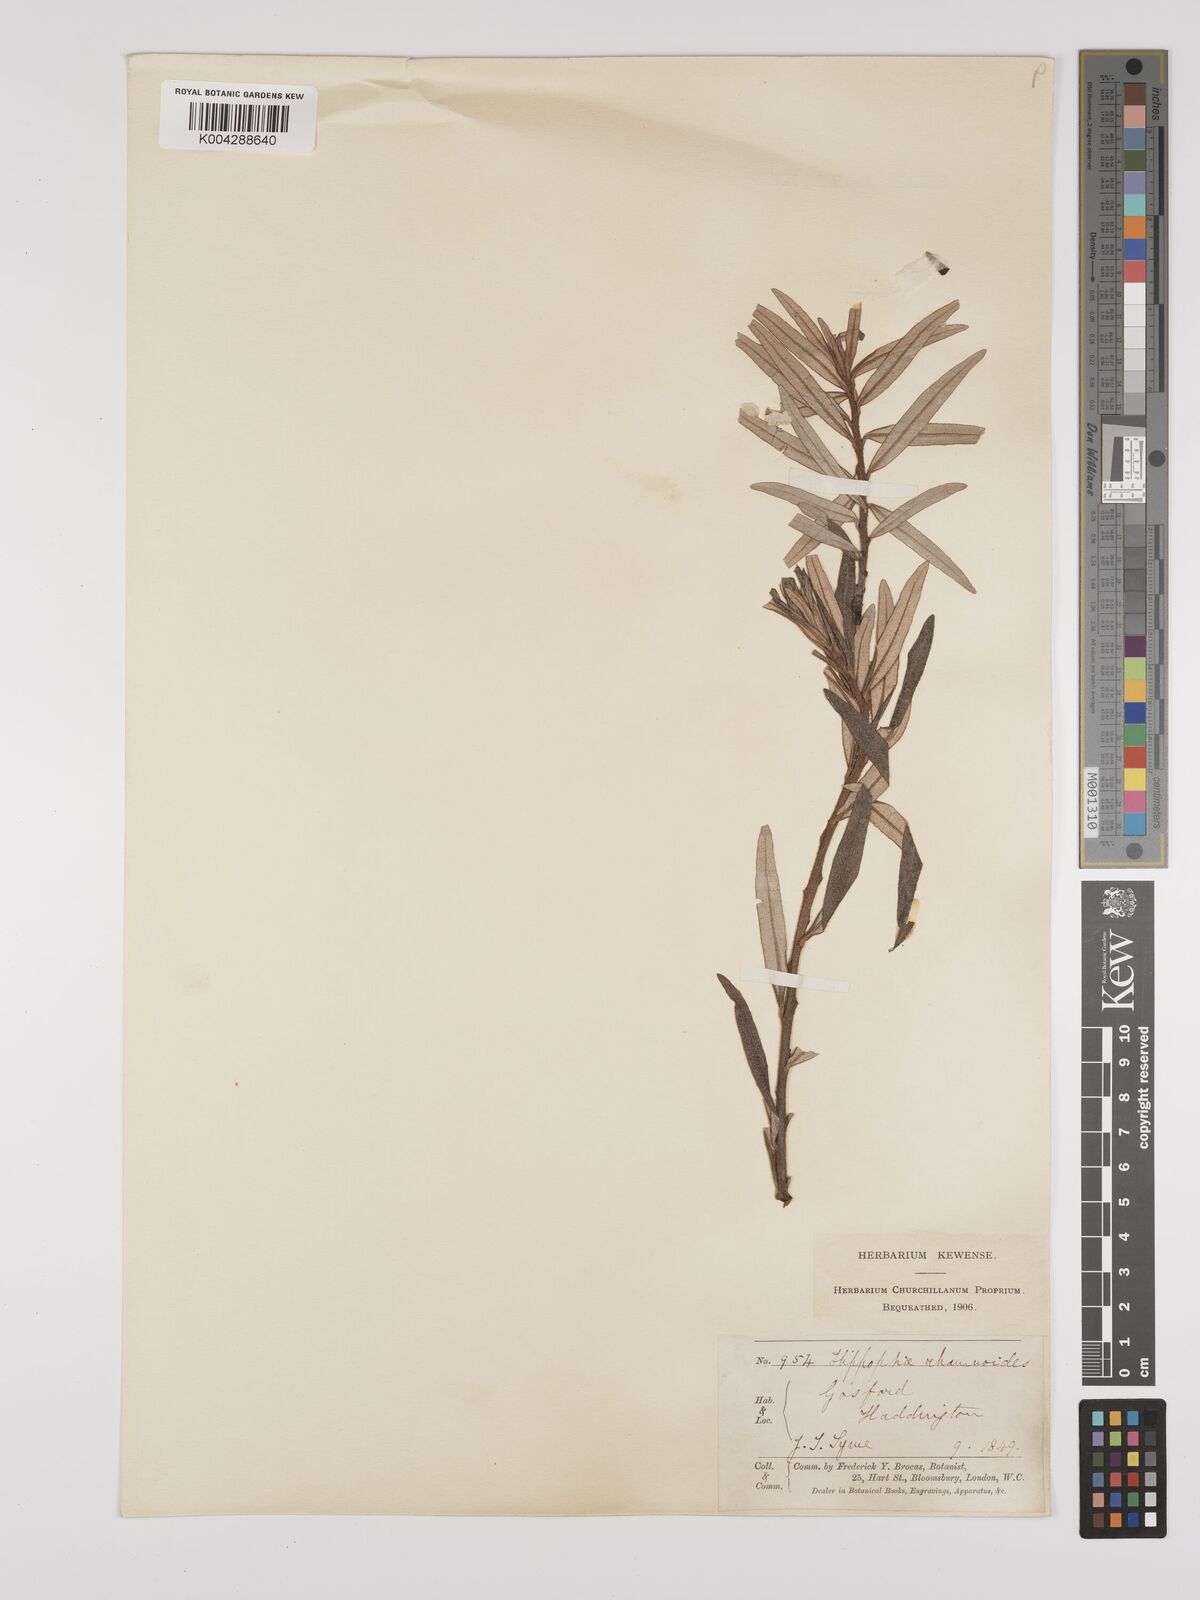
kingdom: Plantae
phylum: Tracheophyta
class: Magnoliopsida
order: Rosales
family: Elaeagnaceae
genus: Hippophae
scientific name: Hippophae rhamnoides
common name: Sea-buckthorn
